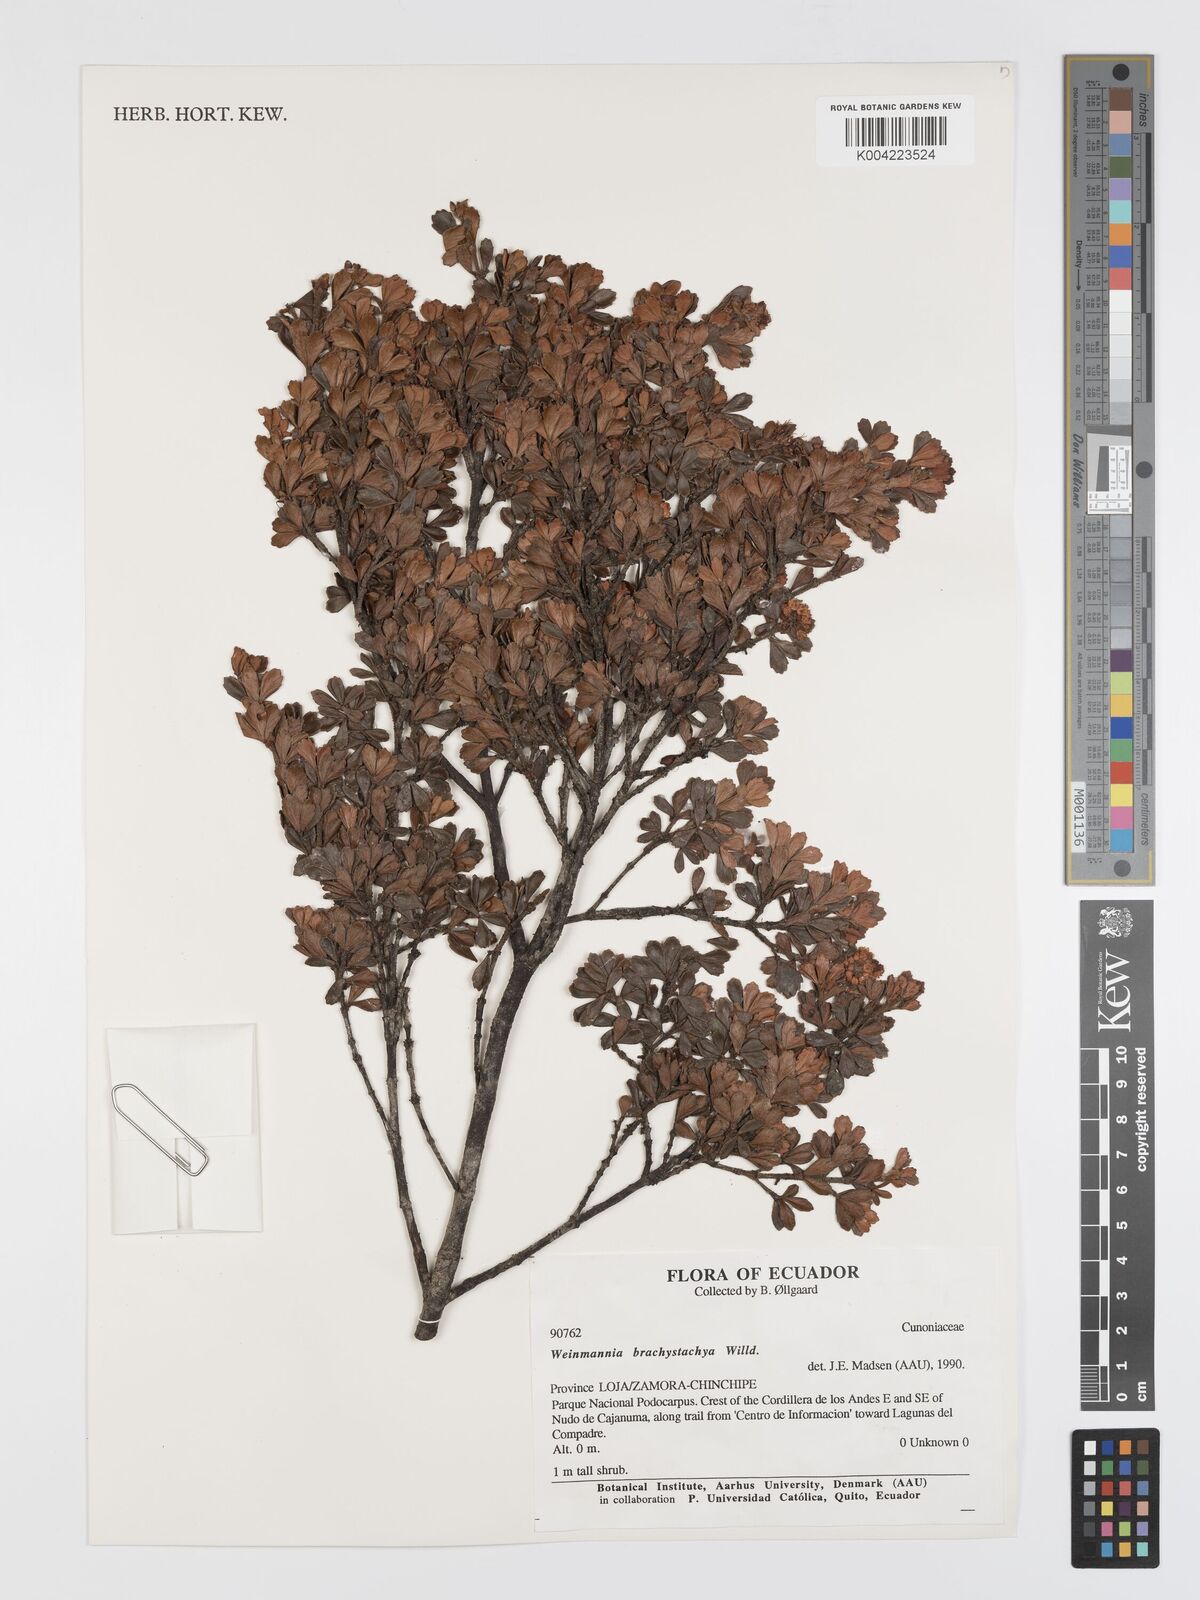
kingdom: Plantae
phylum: Tracheophyta
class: Magnoliopsida
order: Oxalidales
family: Cunoniaceae
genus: Weinmannia
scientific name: Weinmannia microphylla
